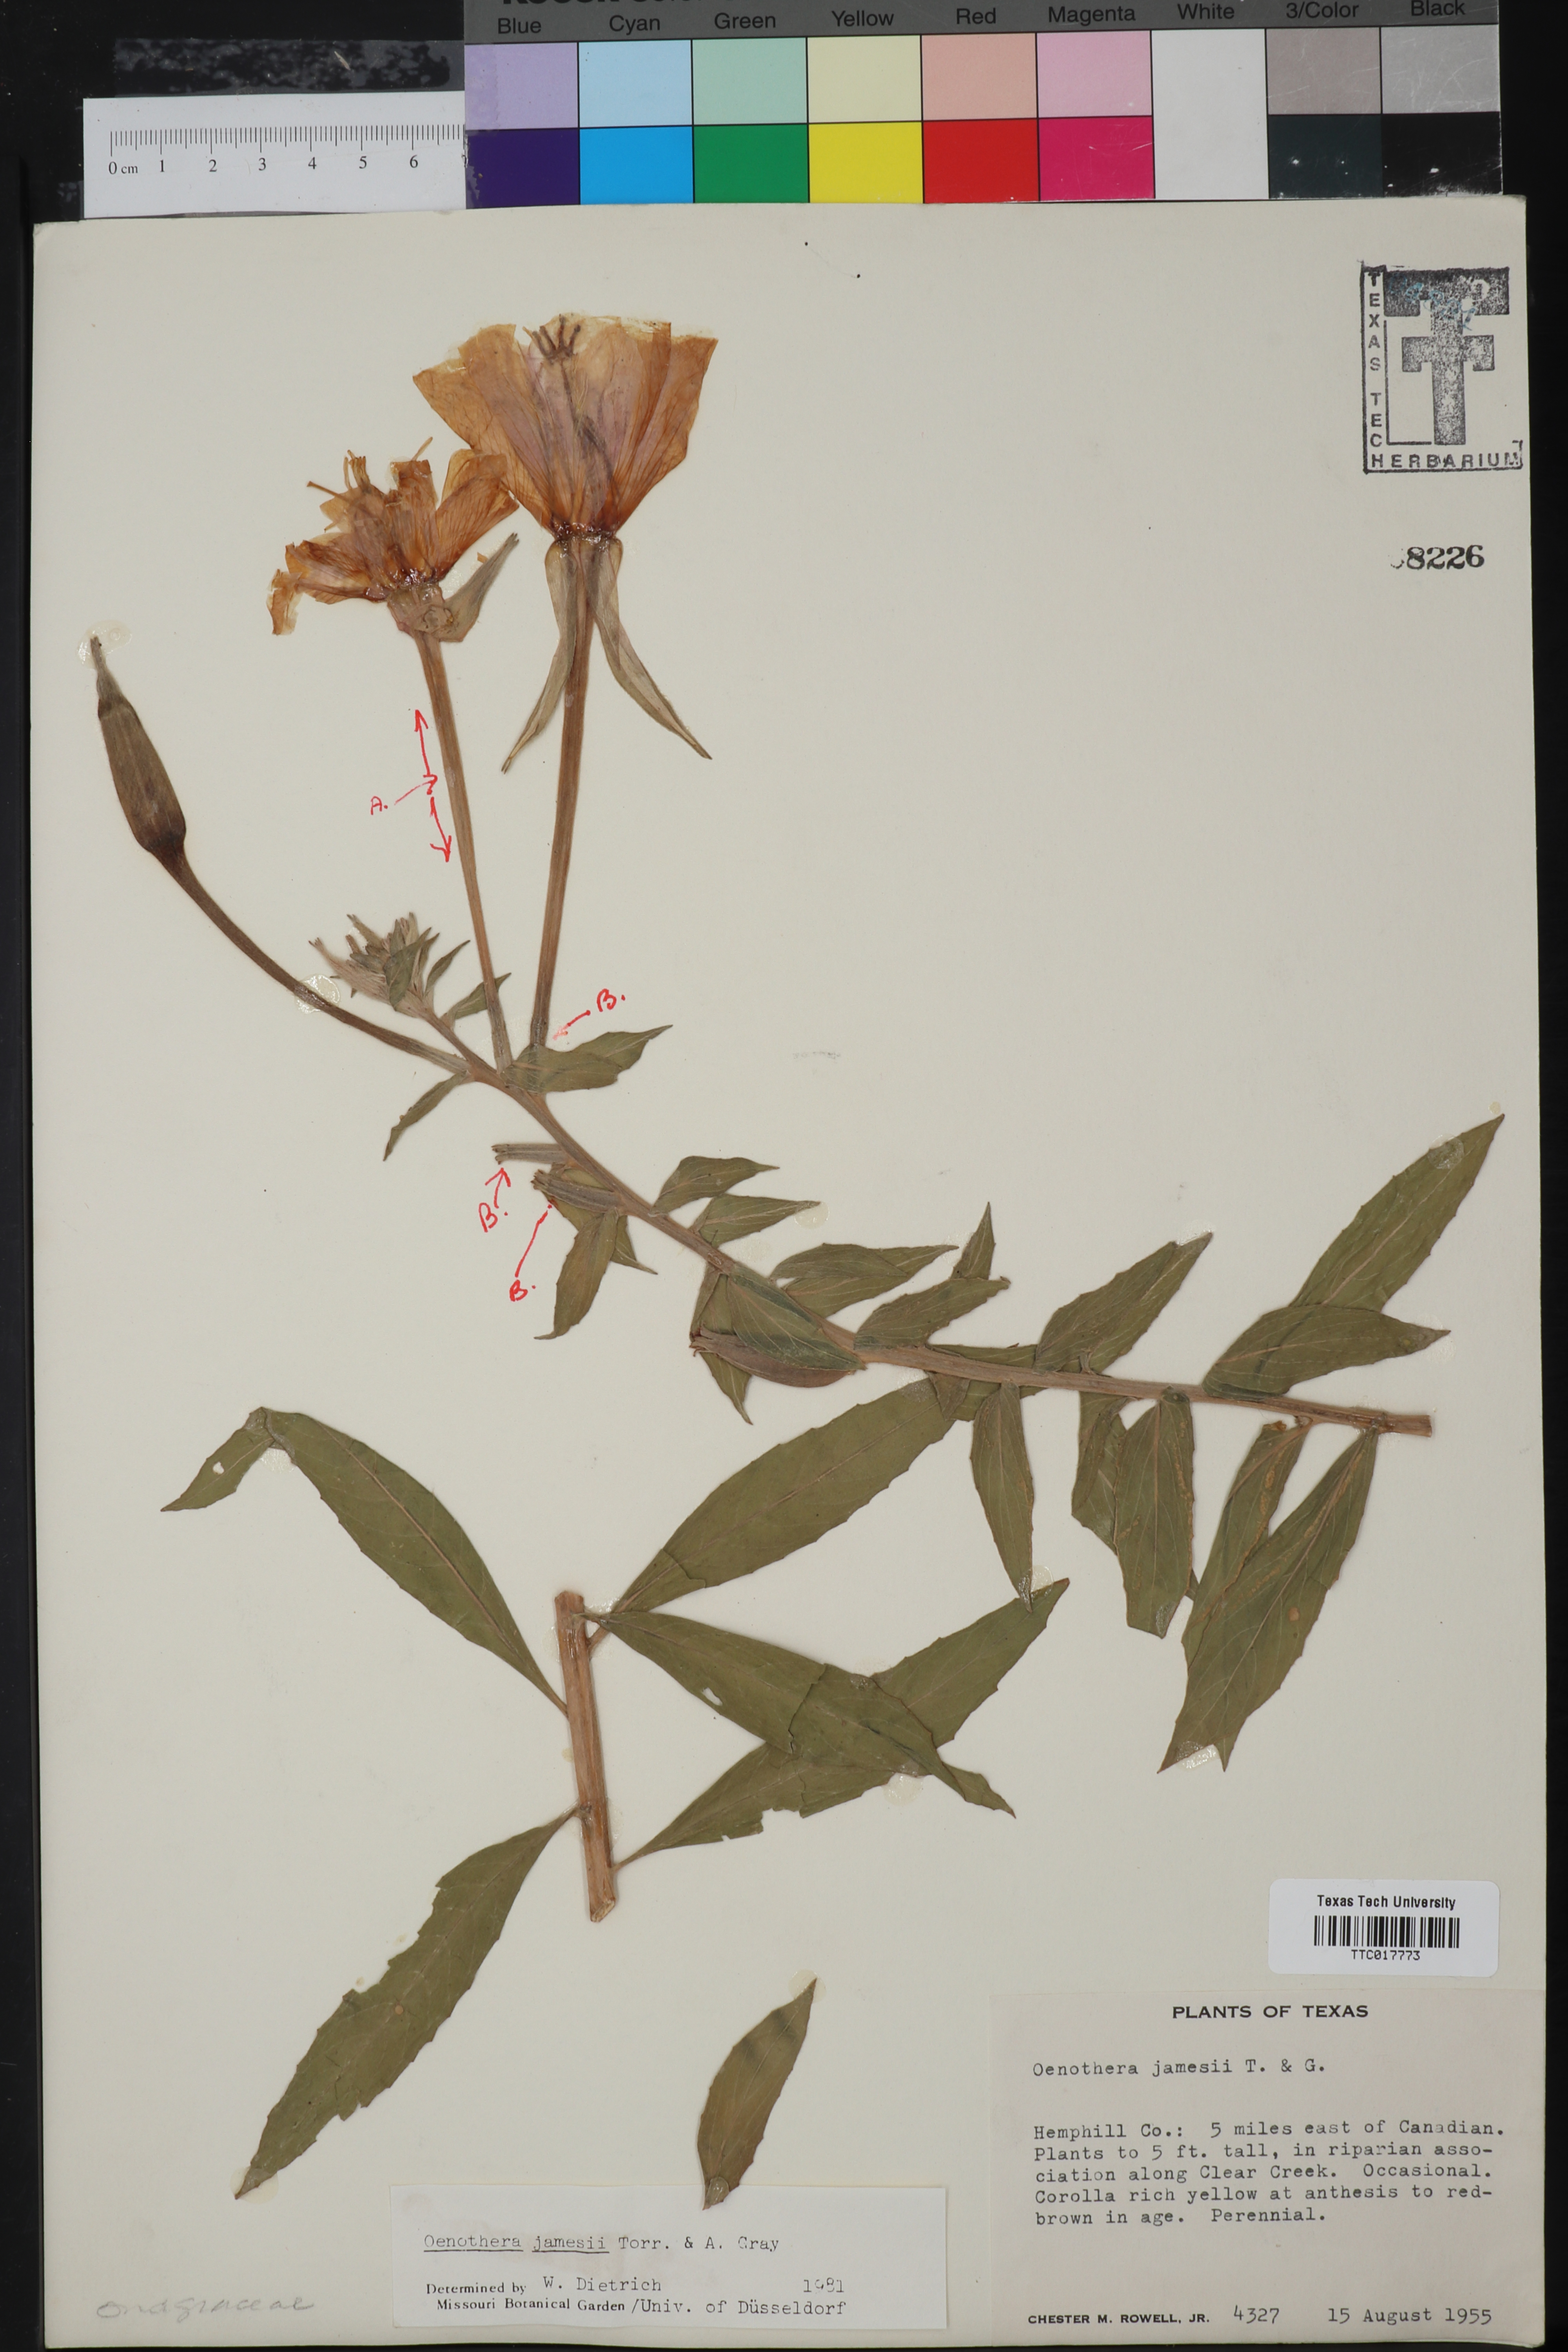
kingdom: Plantae
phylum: Tracheophyta
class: Magnoliopsida
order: Myrtales
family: Onagraceae
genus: Oenothera
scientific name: Oenothera jamesii
